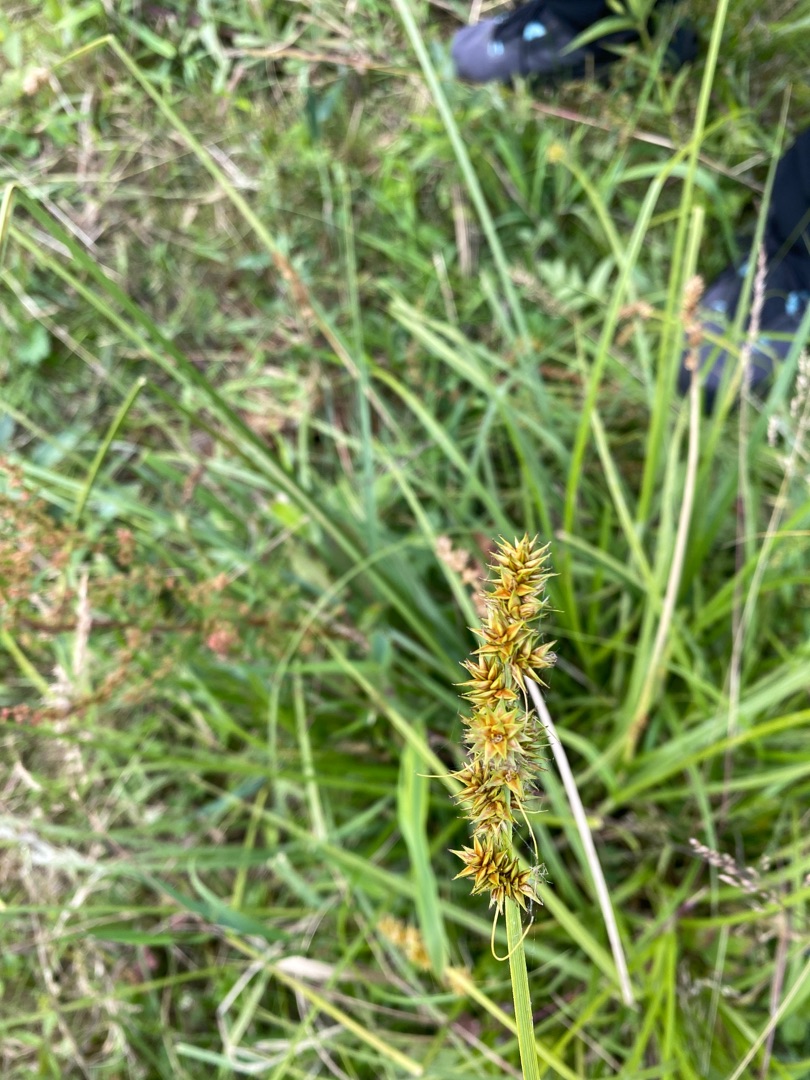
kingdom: Plantae
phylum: Tracheophyta
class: Liliopsida
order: Poales
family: Cyperaceae
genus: Carex
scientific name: Carex otrubae
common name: Sylt-star
